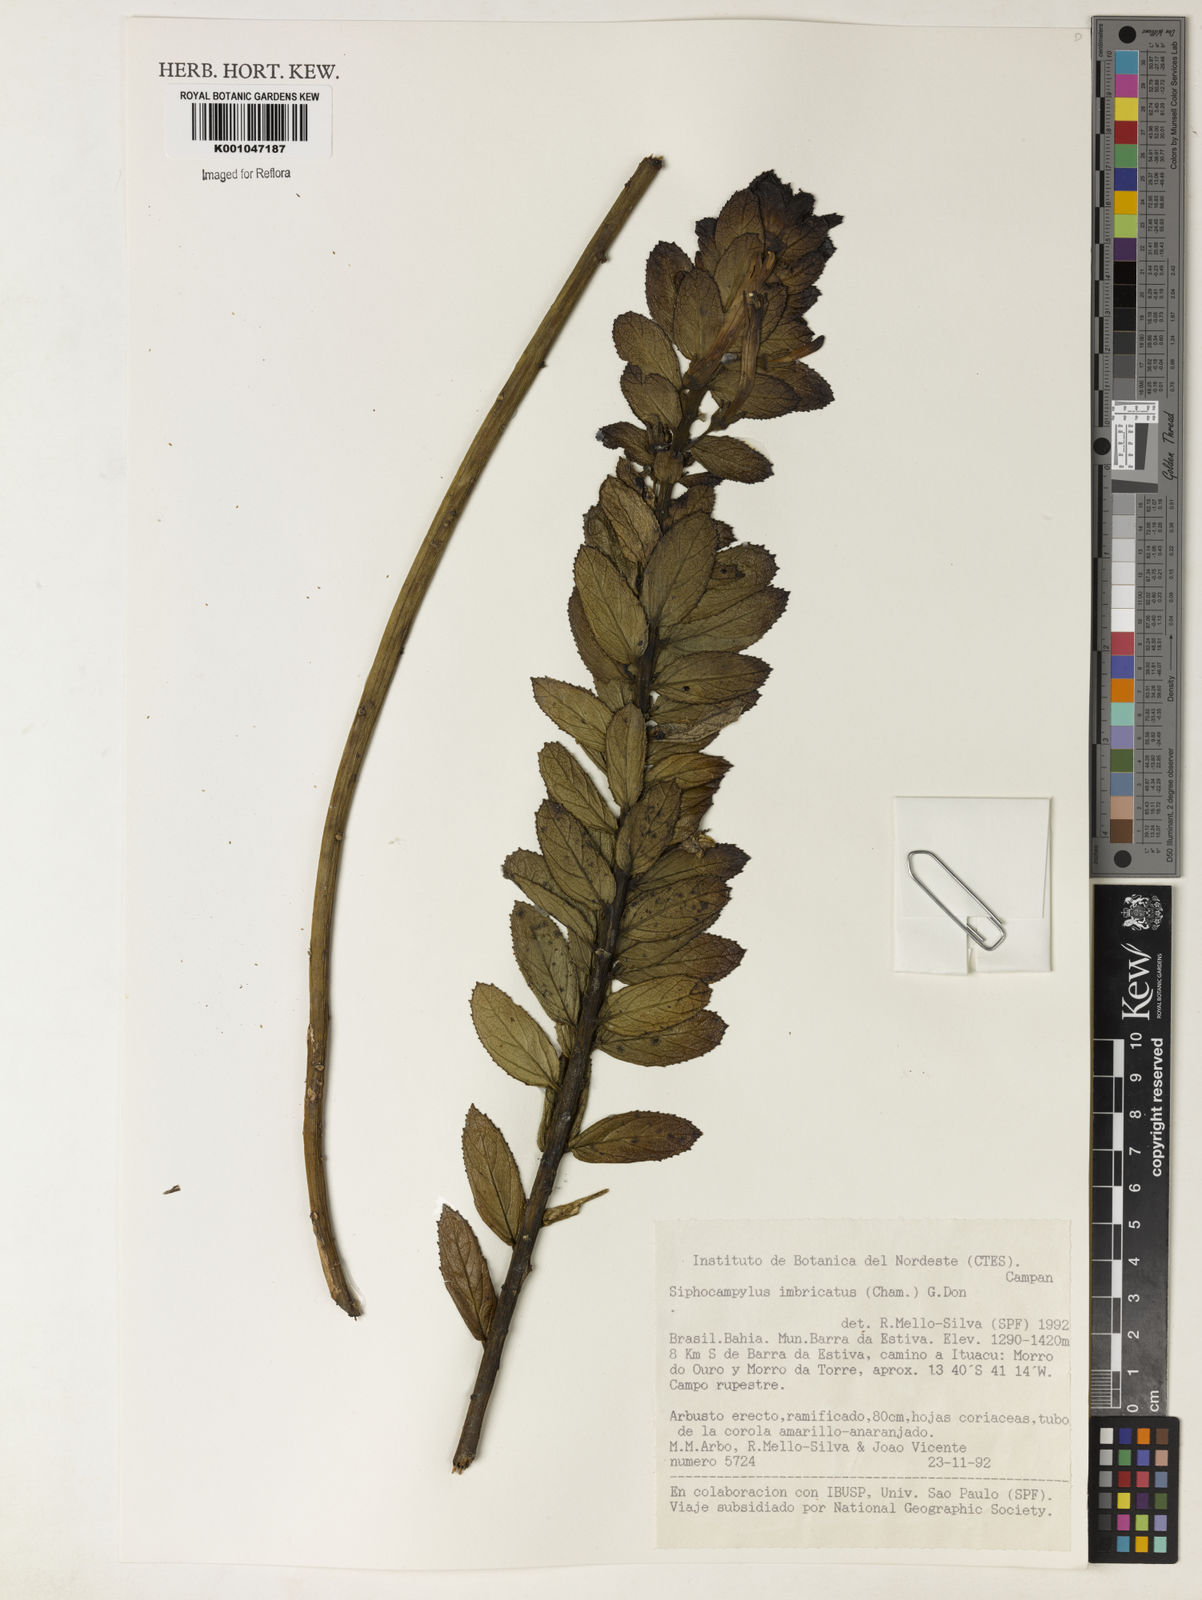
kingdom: Plantae
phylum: Tracheophyta
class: Magnoliopsida
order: Asterales
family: Campanulaceae
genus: Siphocampylus
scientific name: Siphocampylus imbricatus
